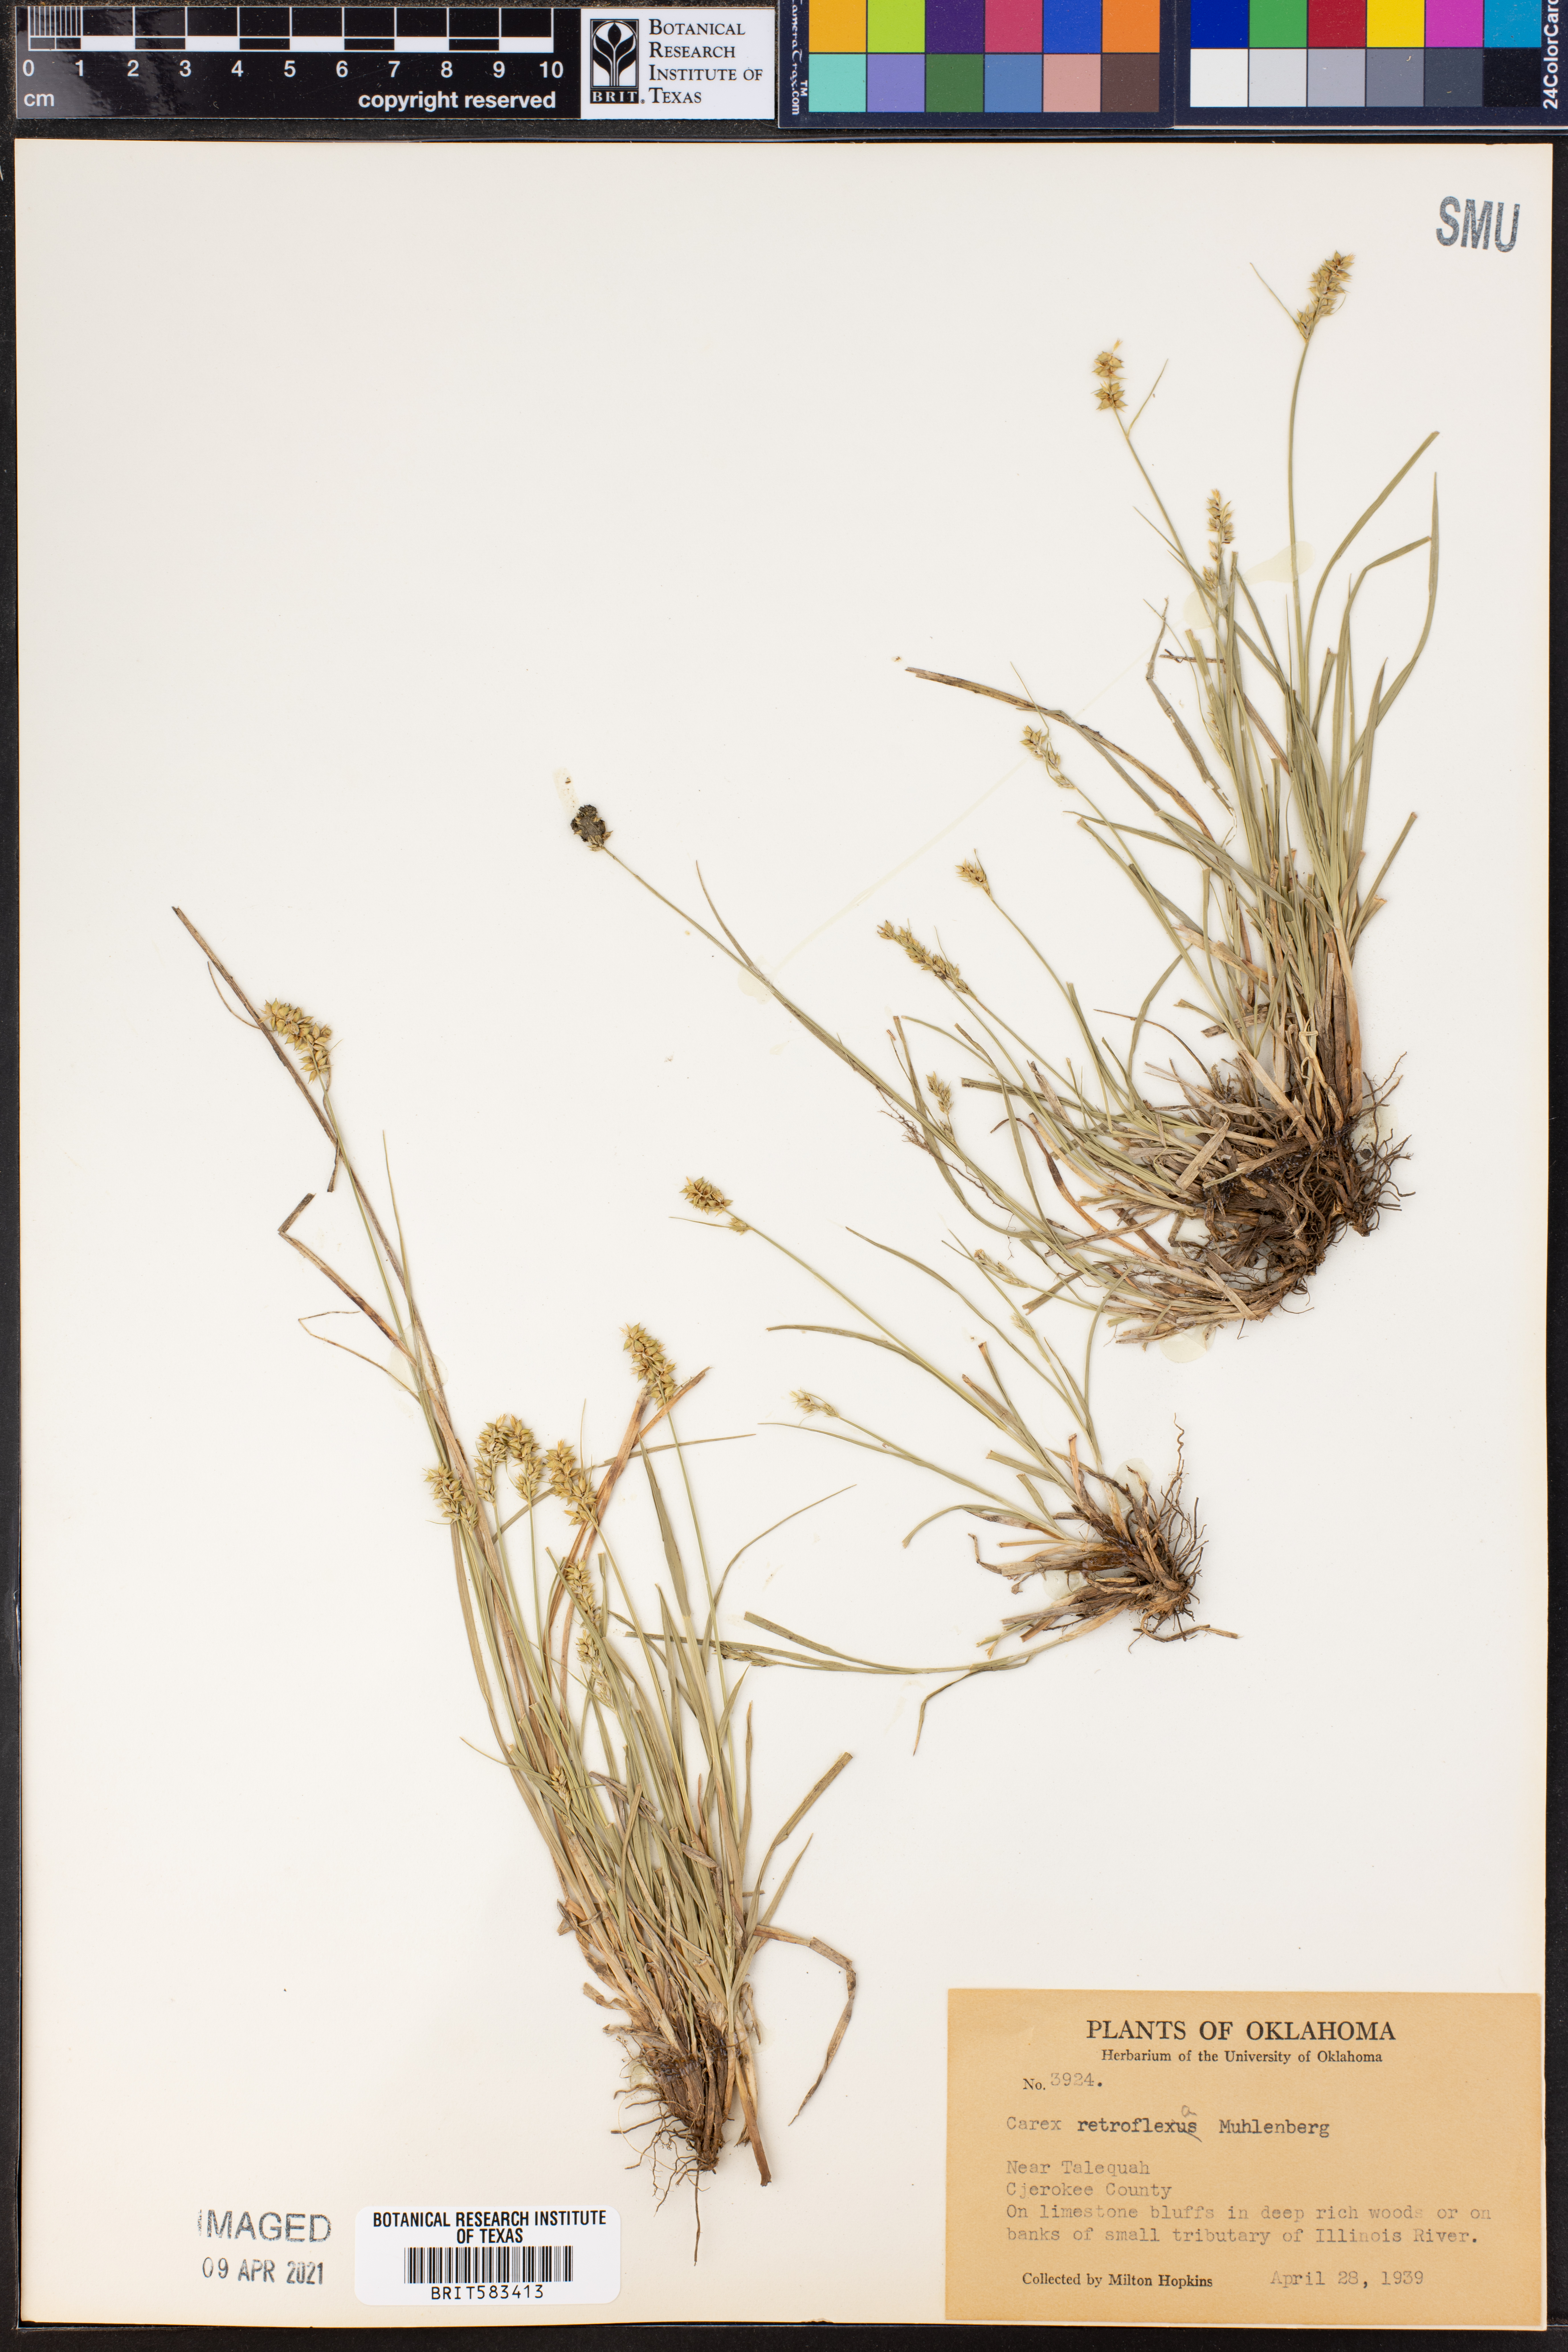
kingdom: Plantae
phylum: Tracheophyta
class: Liliopsida
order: Poales
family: Cyperaceae
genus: Carex
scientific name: Carex retroflexa
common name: Reflexed sedge
